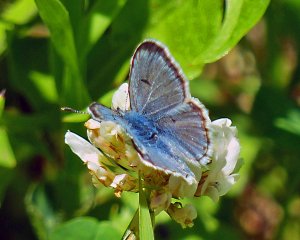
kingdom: Animalia
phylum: Arthropoda
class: Insecta
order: Lepidoptera
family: Lycaenidae
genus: Plebejus
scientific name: Plebejus saepiolus
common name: Greenish Blue
